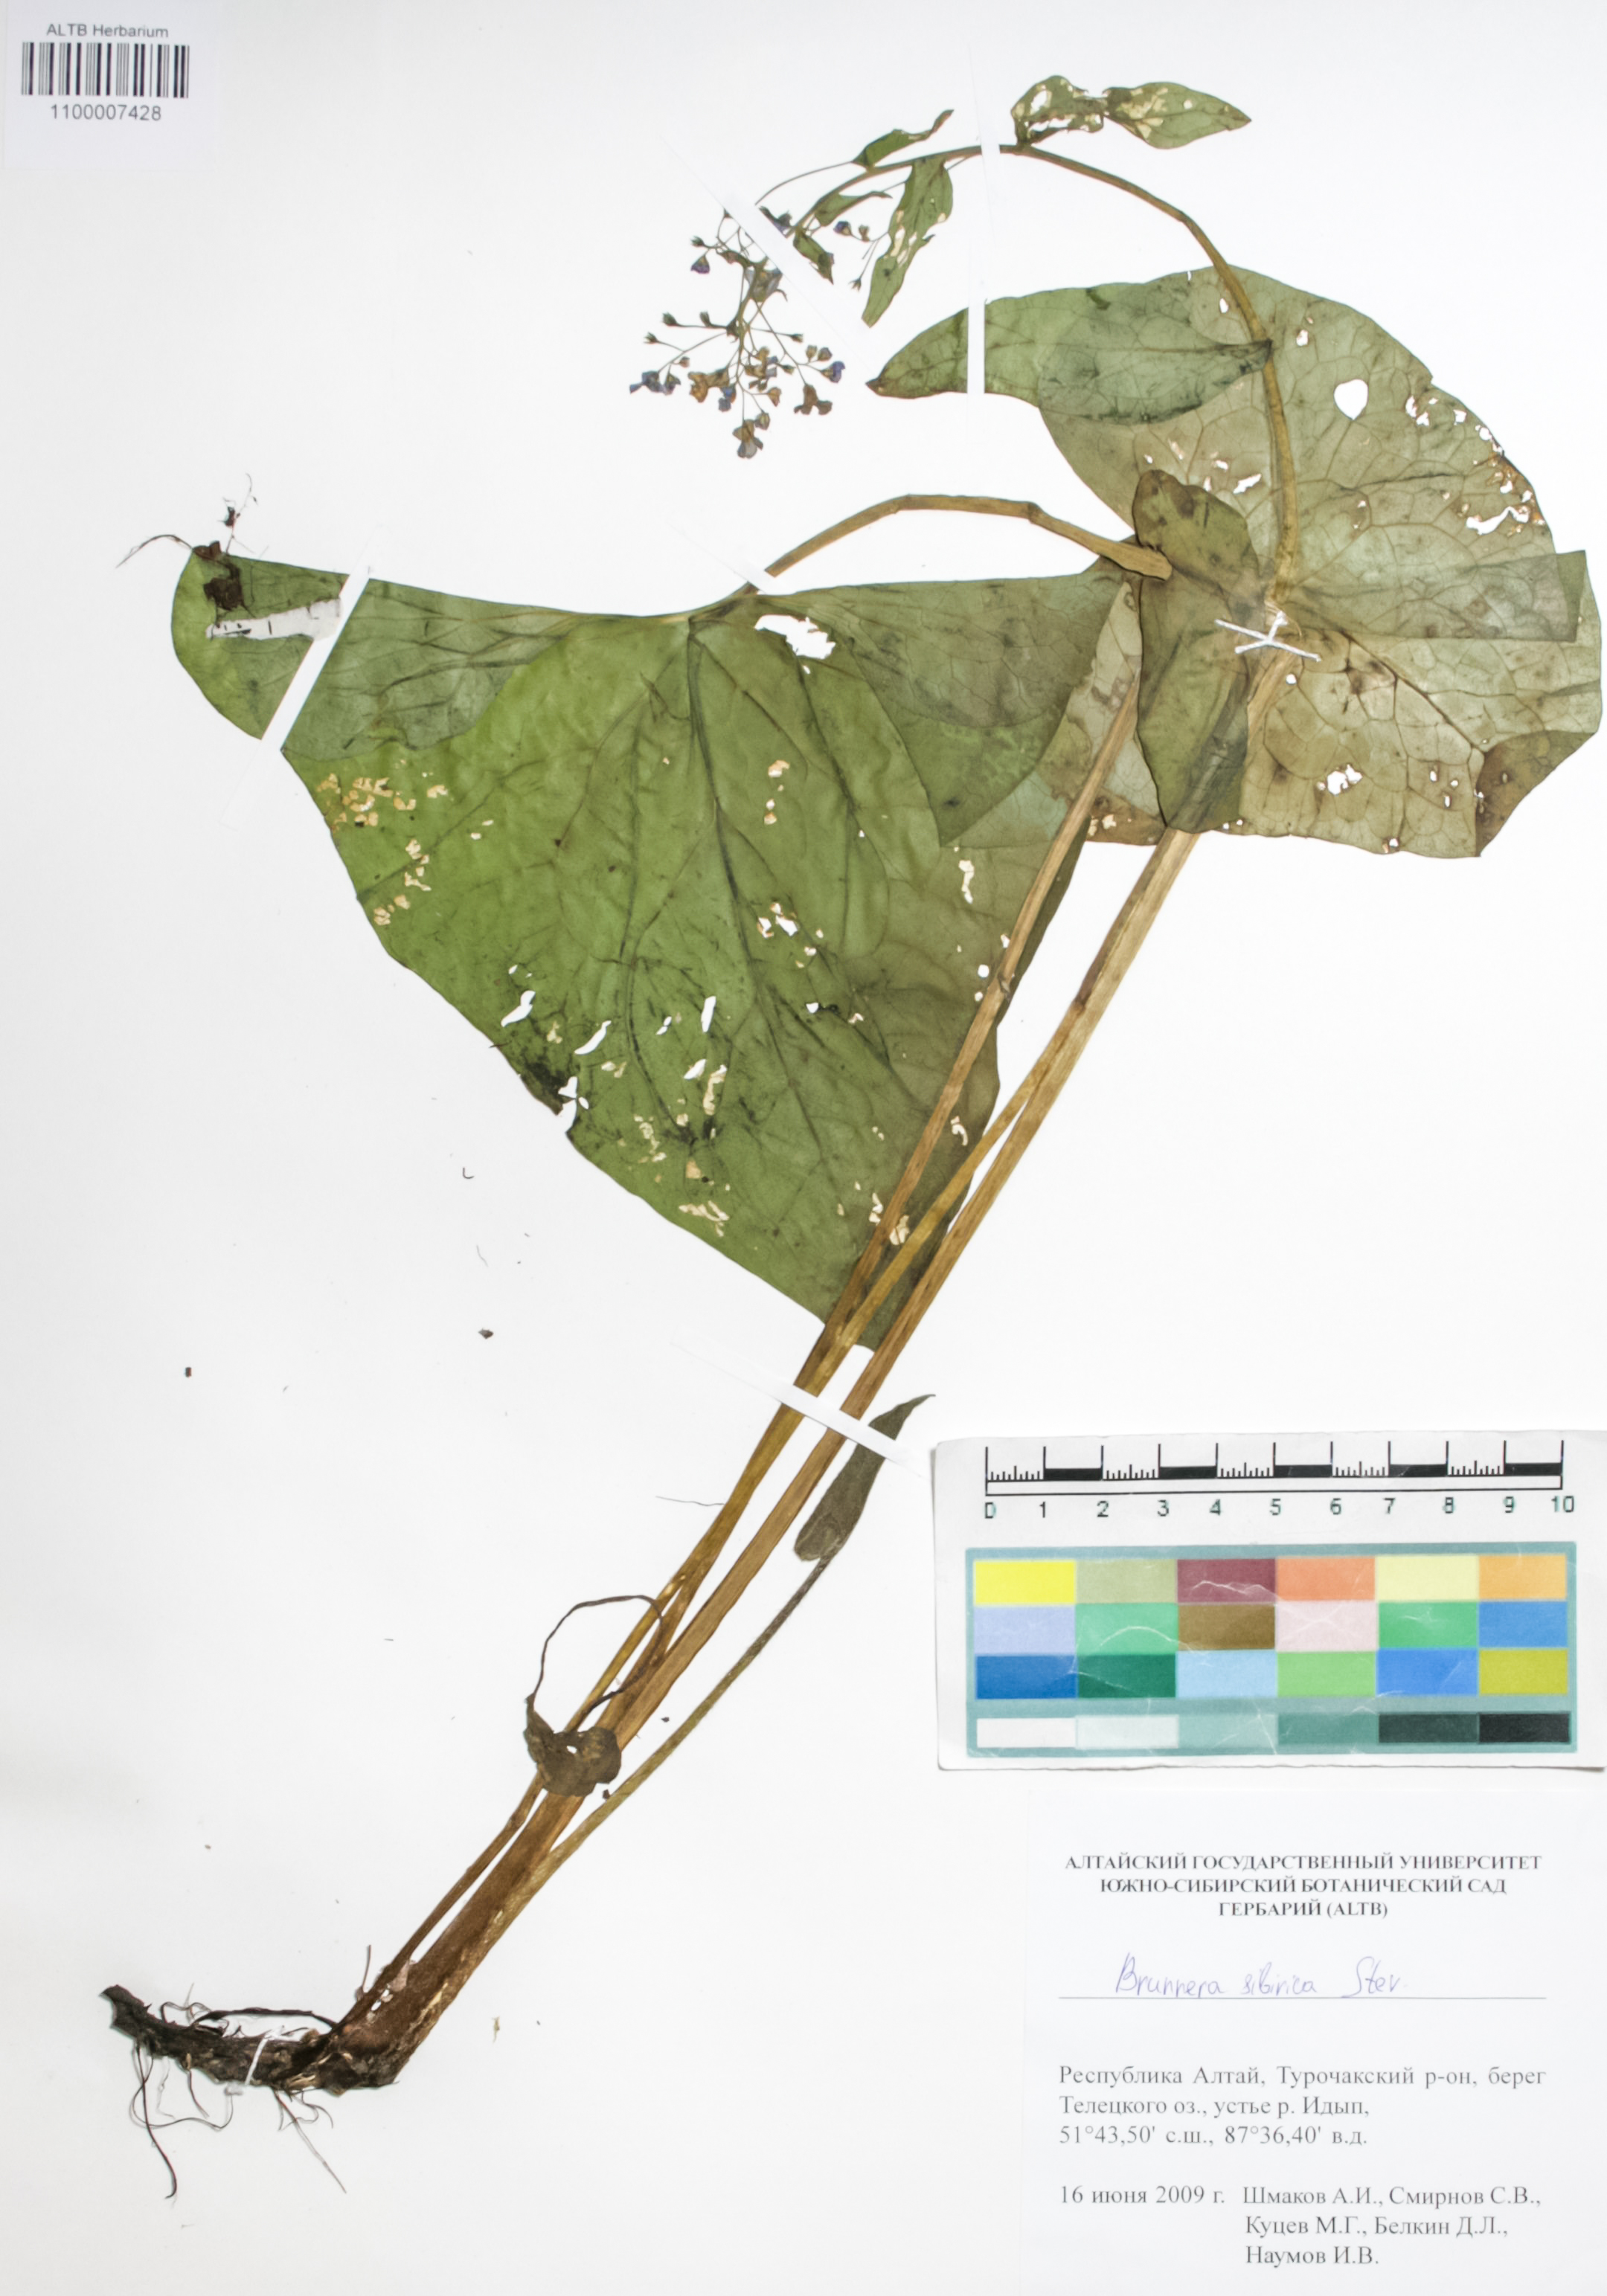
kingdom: Plantae
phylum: Tracheophyta
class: Magnoliopsida
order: Boraginales
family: Boraginaceae
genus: Brunnera
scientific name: Brunnera sibirica
